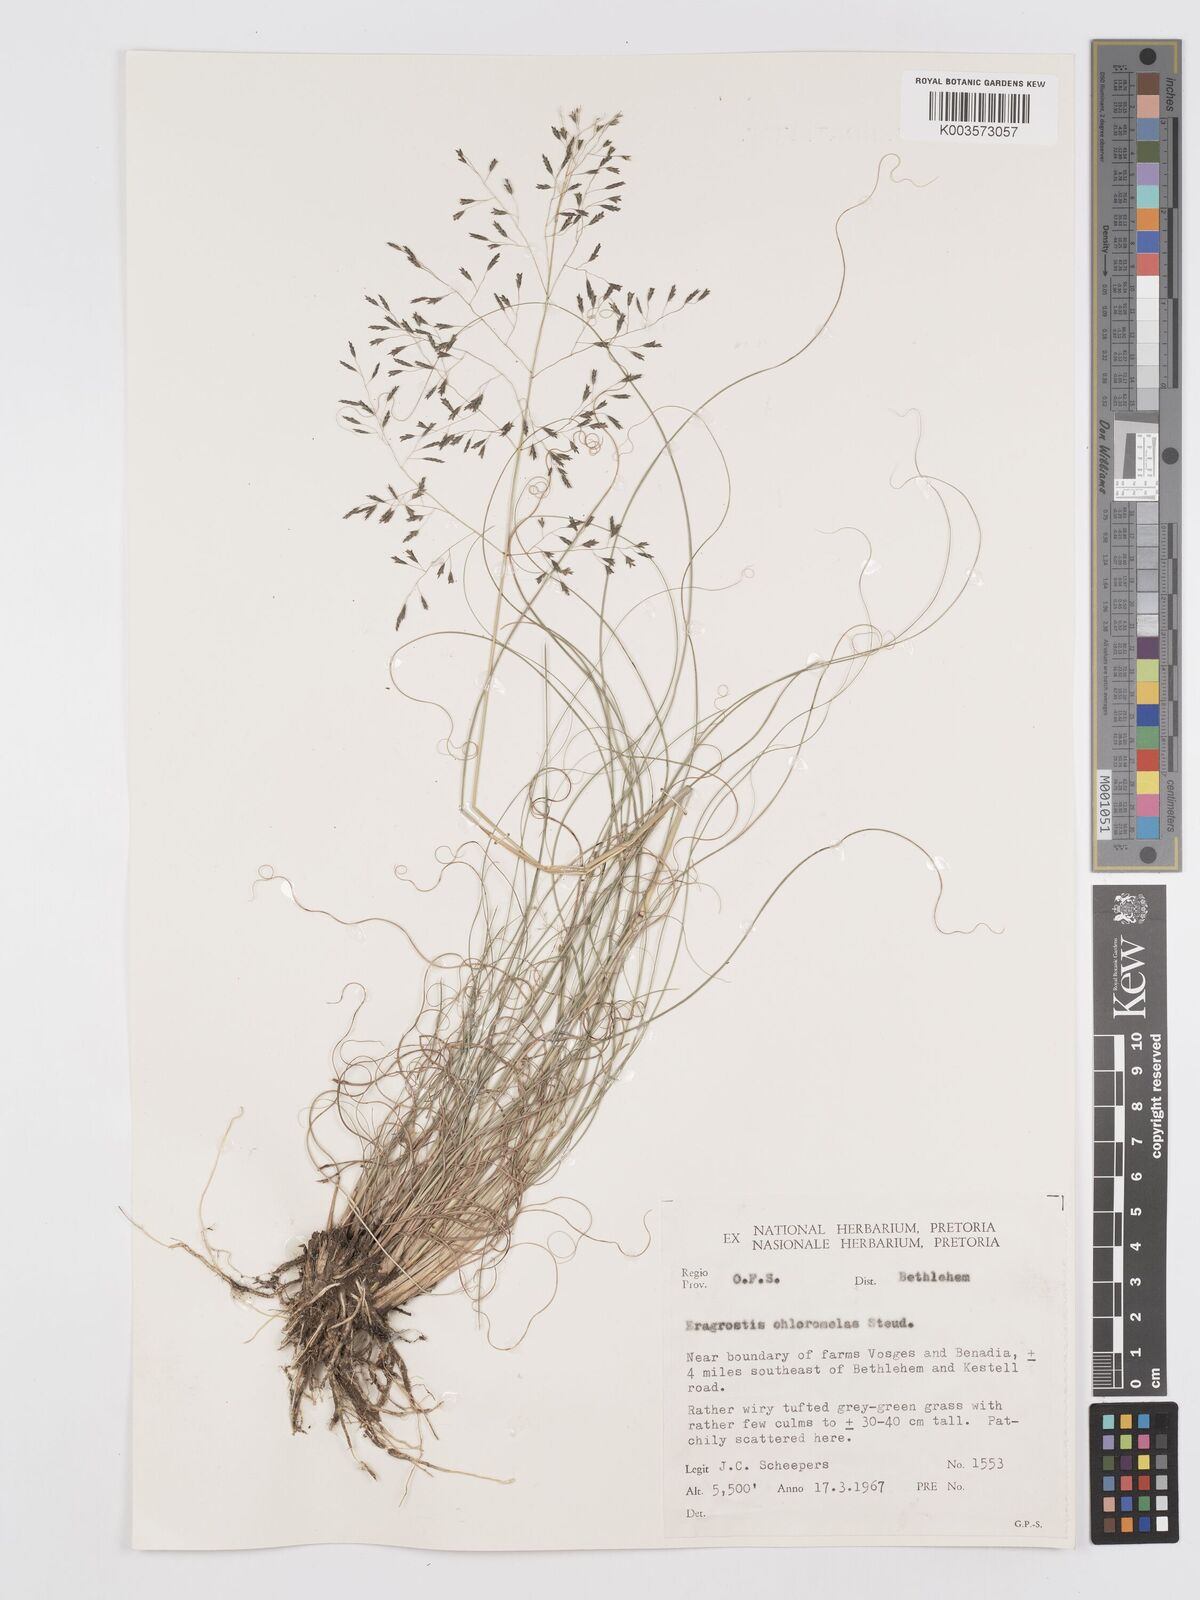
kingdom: Plantae
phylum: Tracheophyta
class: Liliopsida
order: Poales
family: Poaceae
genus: Eragrostis
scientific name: Eragrostis curvula
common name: African love-grass
